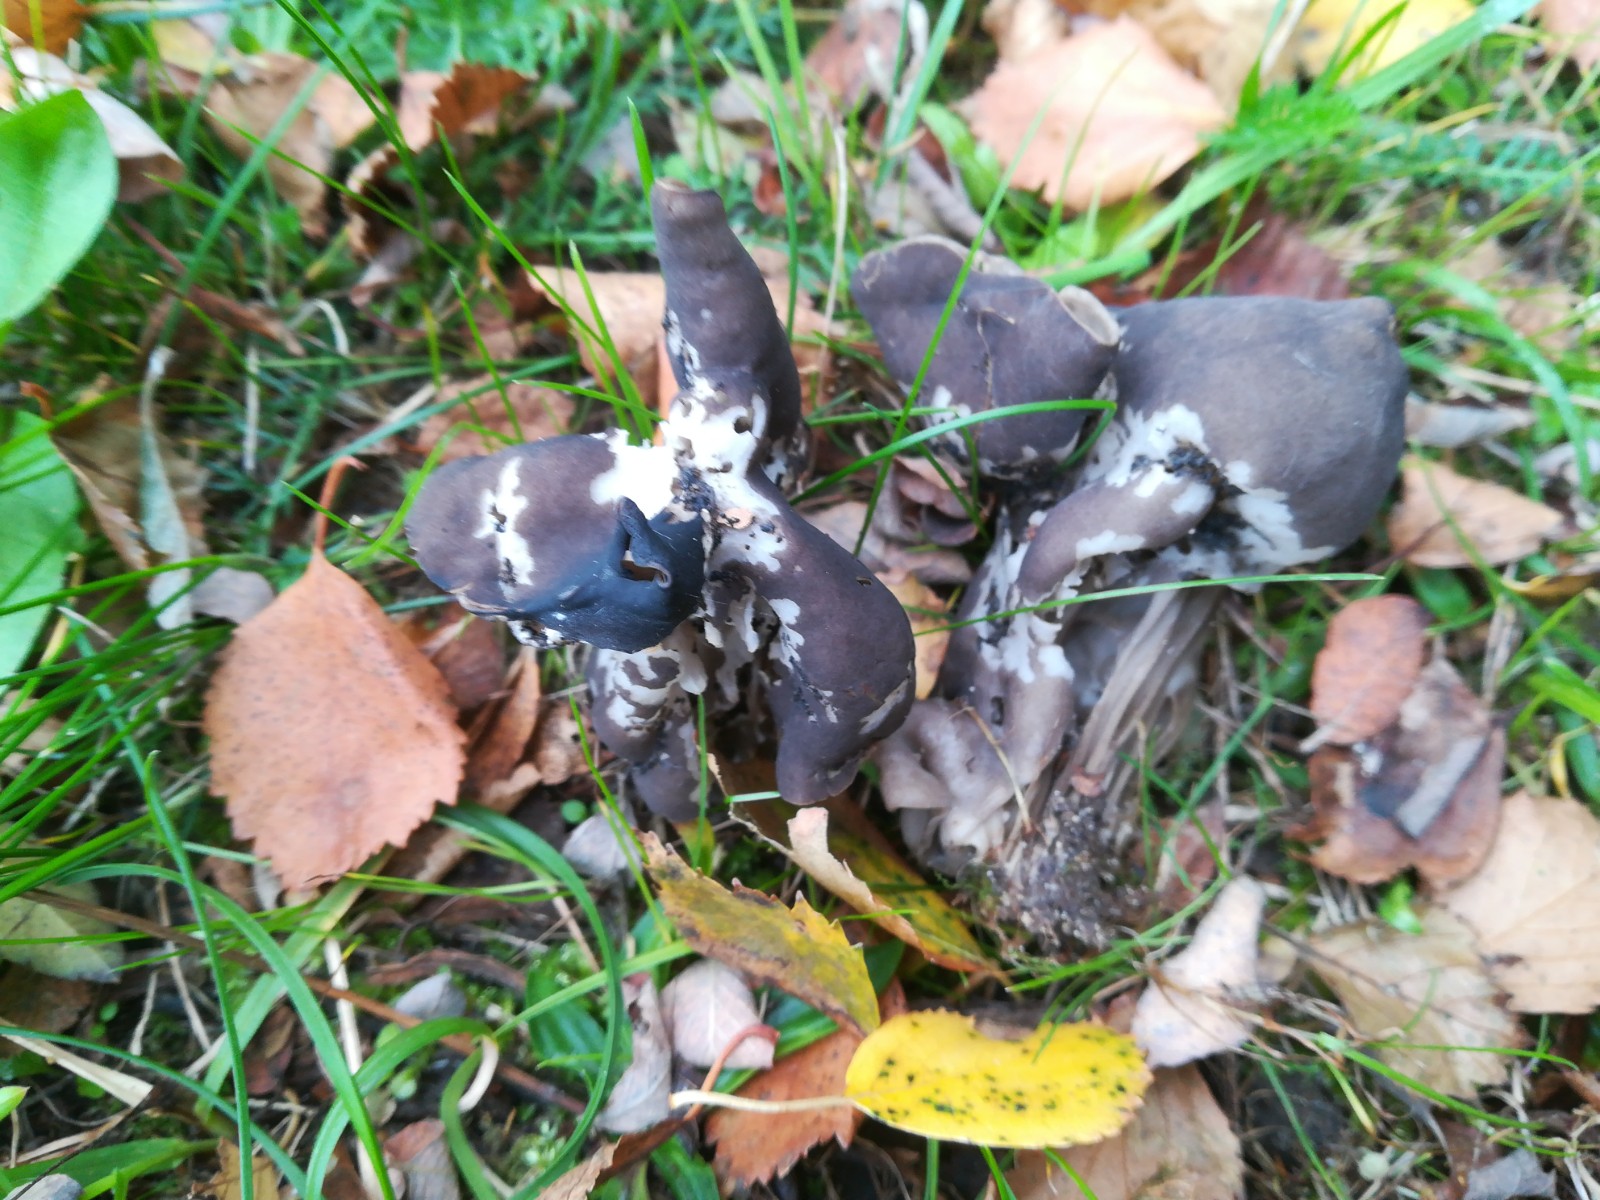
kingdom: Fungi
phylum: Ascomycota
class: Pezizomycetes
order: Pezizales
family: Helvellaceae
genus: Helvella
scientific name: Helvella lacunosa
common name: grubet foldhat
